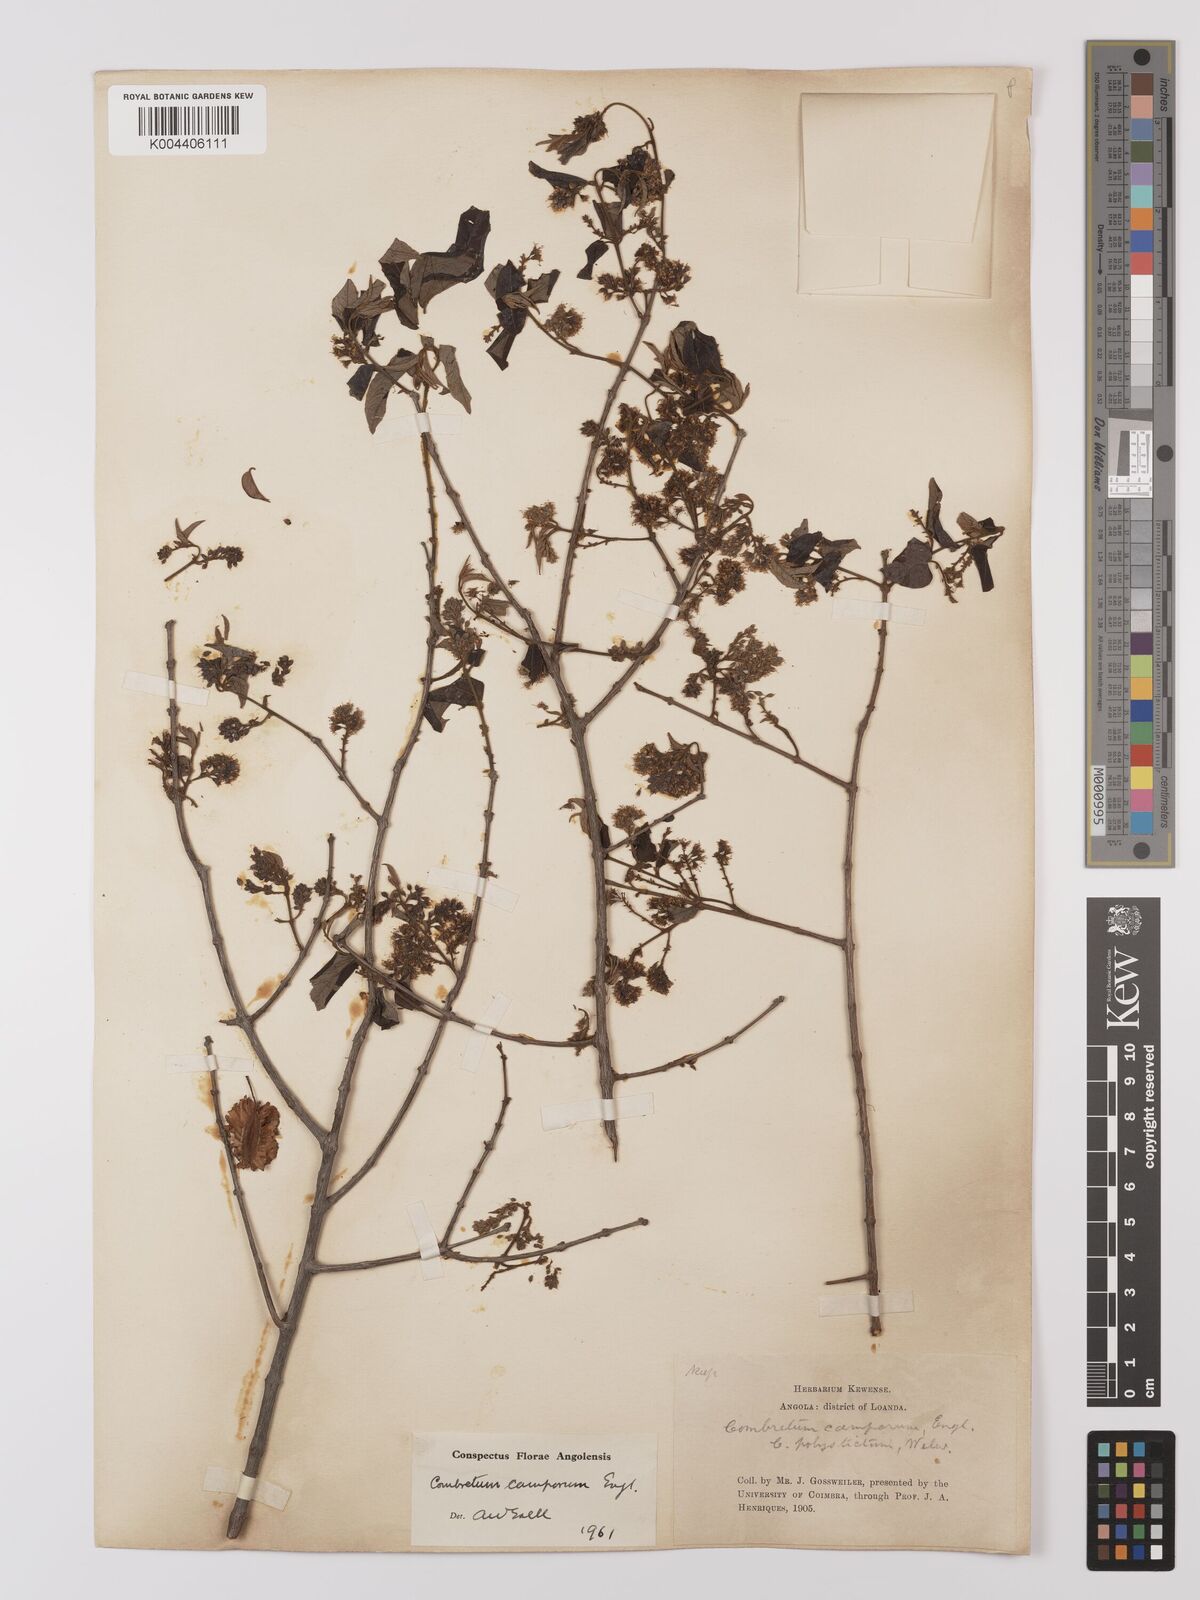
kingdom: Plantae
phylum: Tracheophyta
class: Magnoliopsida
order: Myrtales
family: Combretaceae
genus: Combretum
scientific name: Combretum camporum
